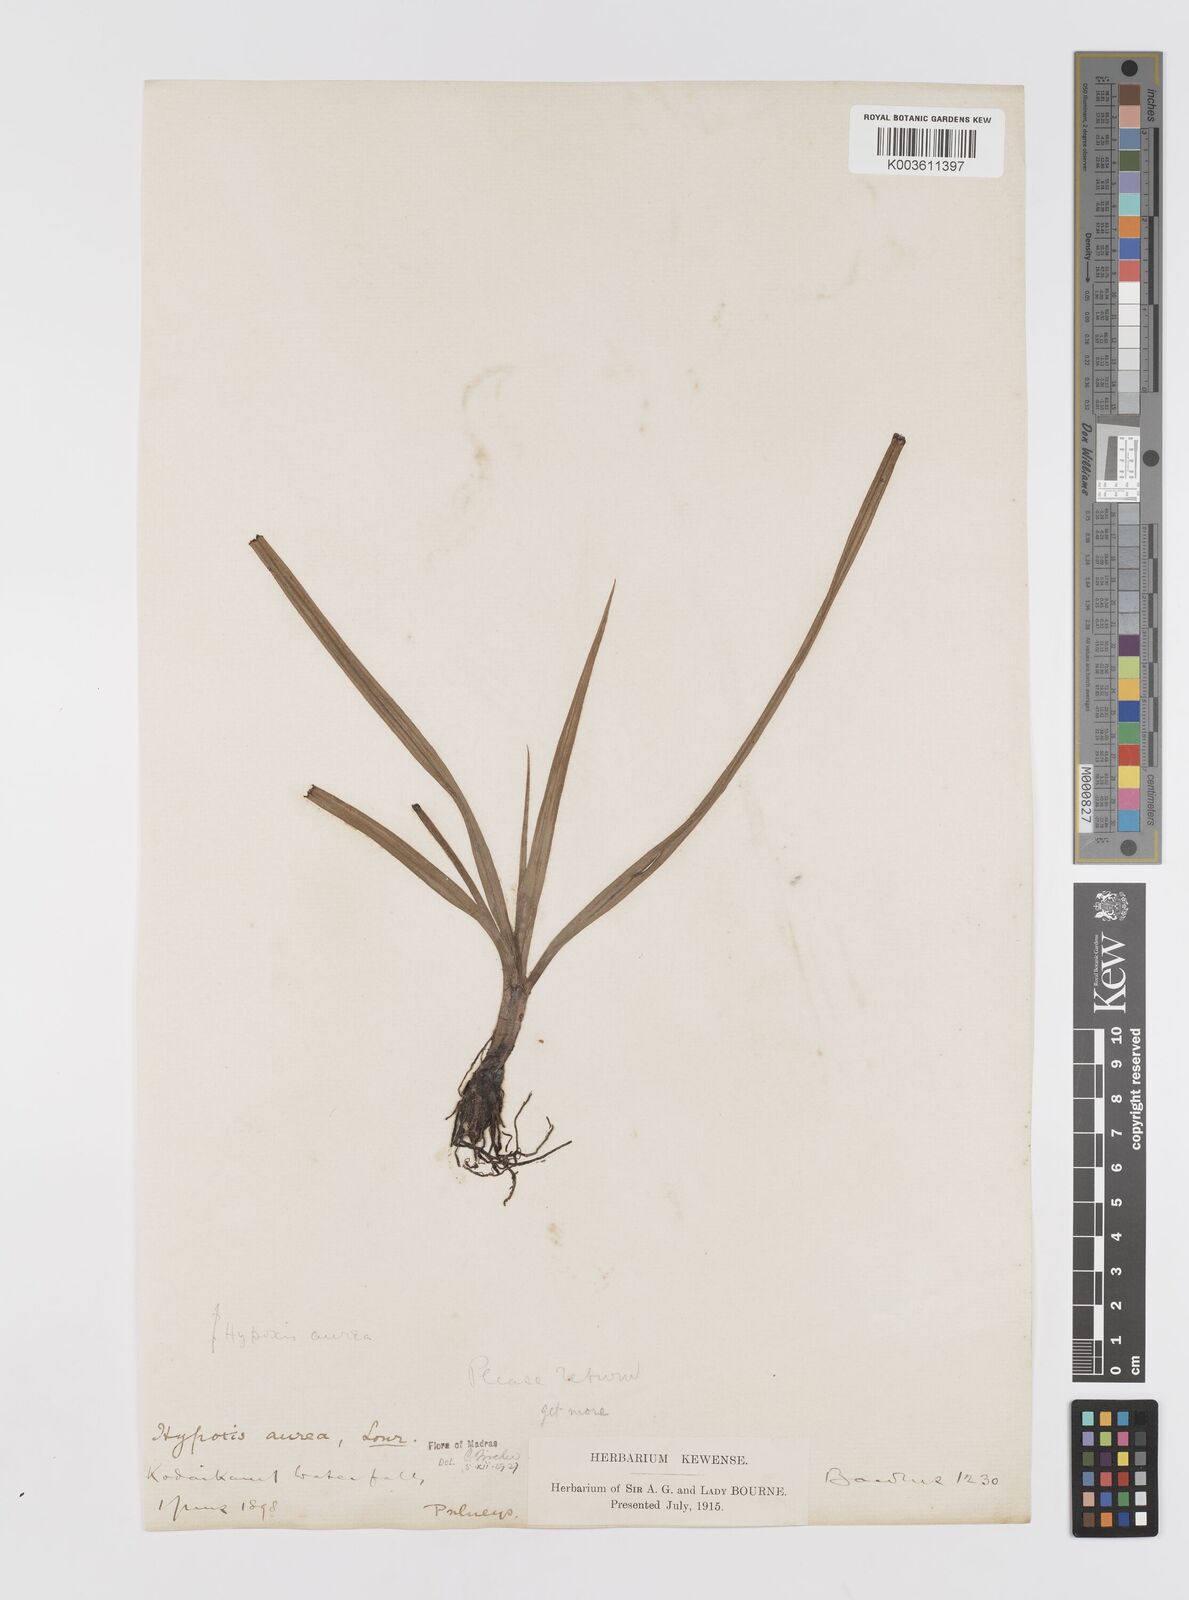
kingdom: Plantae
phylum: Tracheophyta
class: Liliopsida
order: Asparagales
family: Hypoxidaceae
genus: Hypoxis
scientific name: Hypoxis aurea
